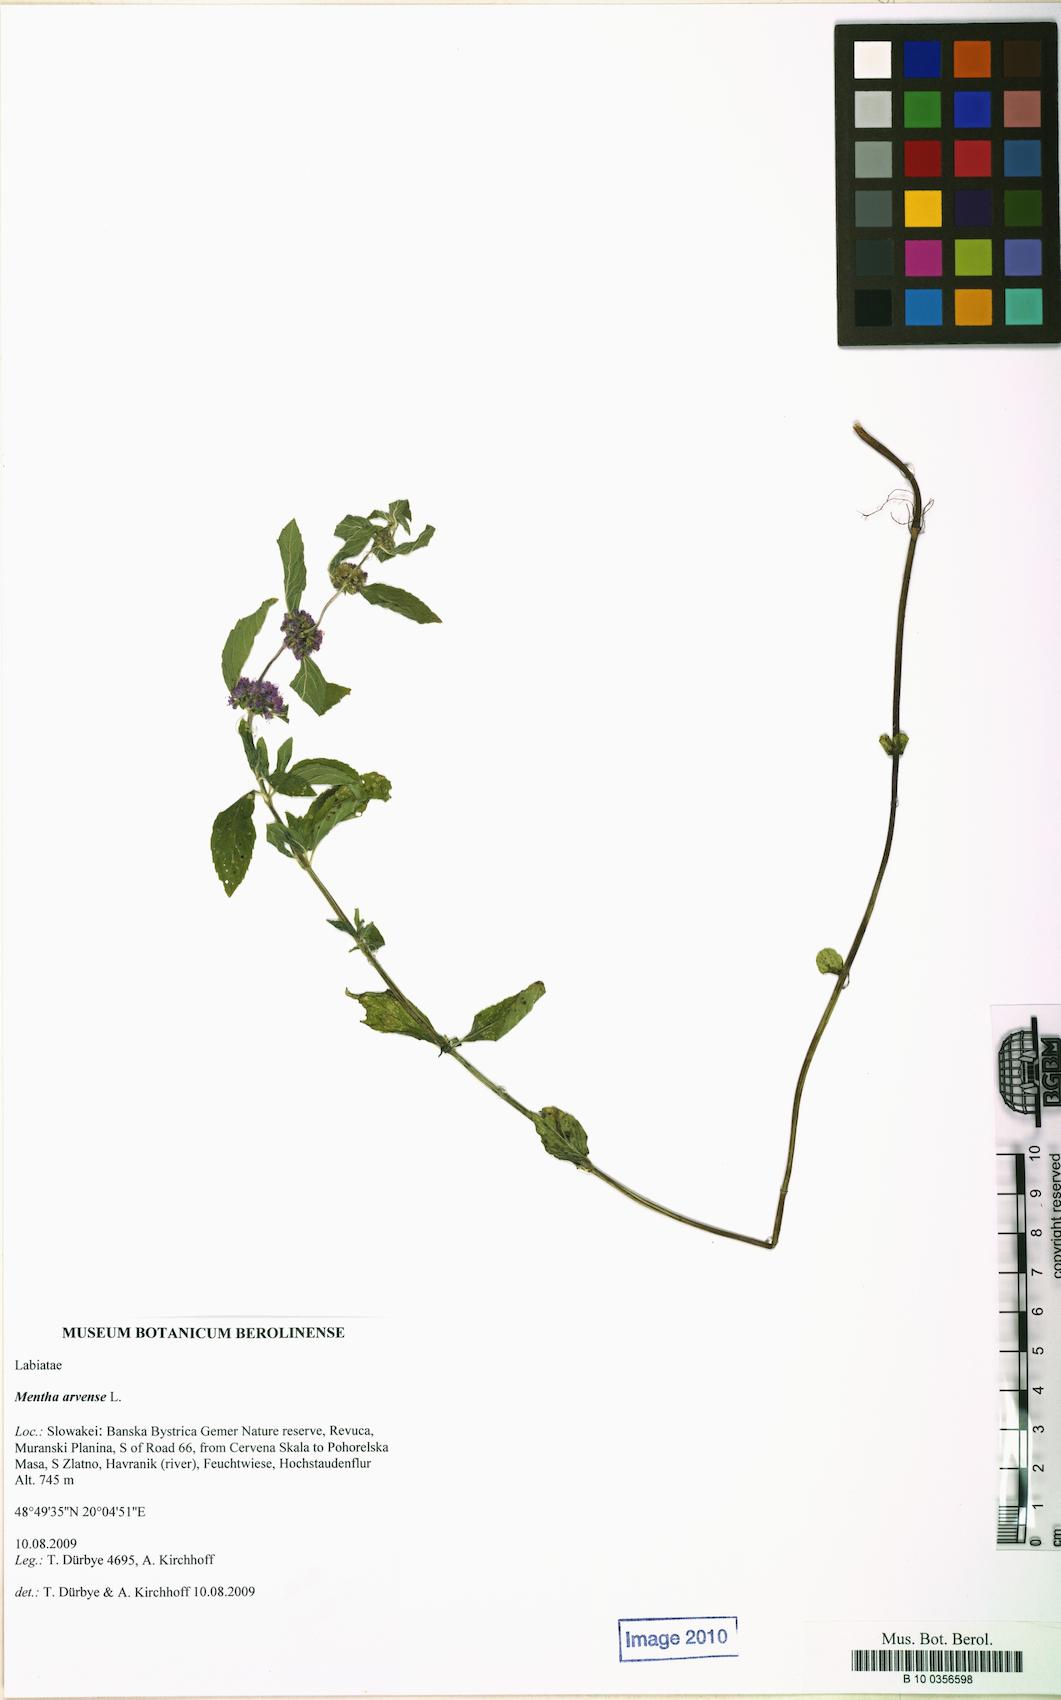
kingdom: Plantae
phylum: Tracheophyta
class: Magnoliopsida
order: Lamiales
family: Lamiaceae
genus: Mentha
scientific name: Mentha arvensis
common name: Corn mint
